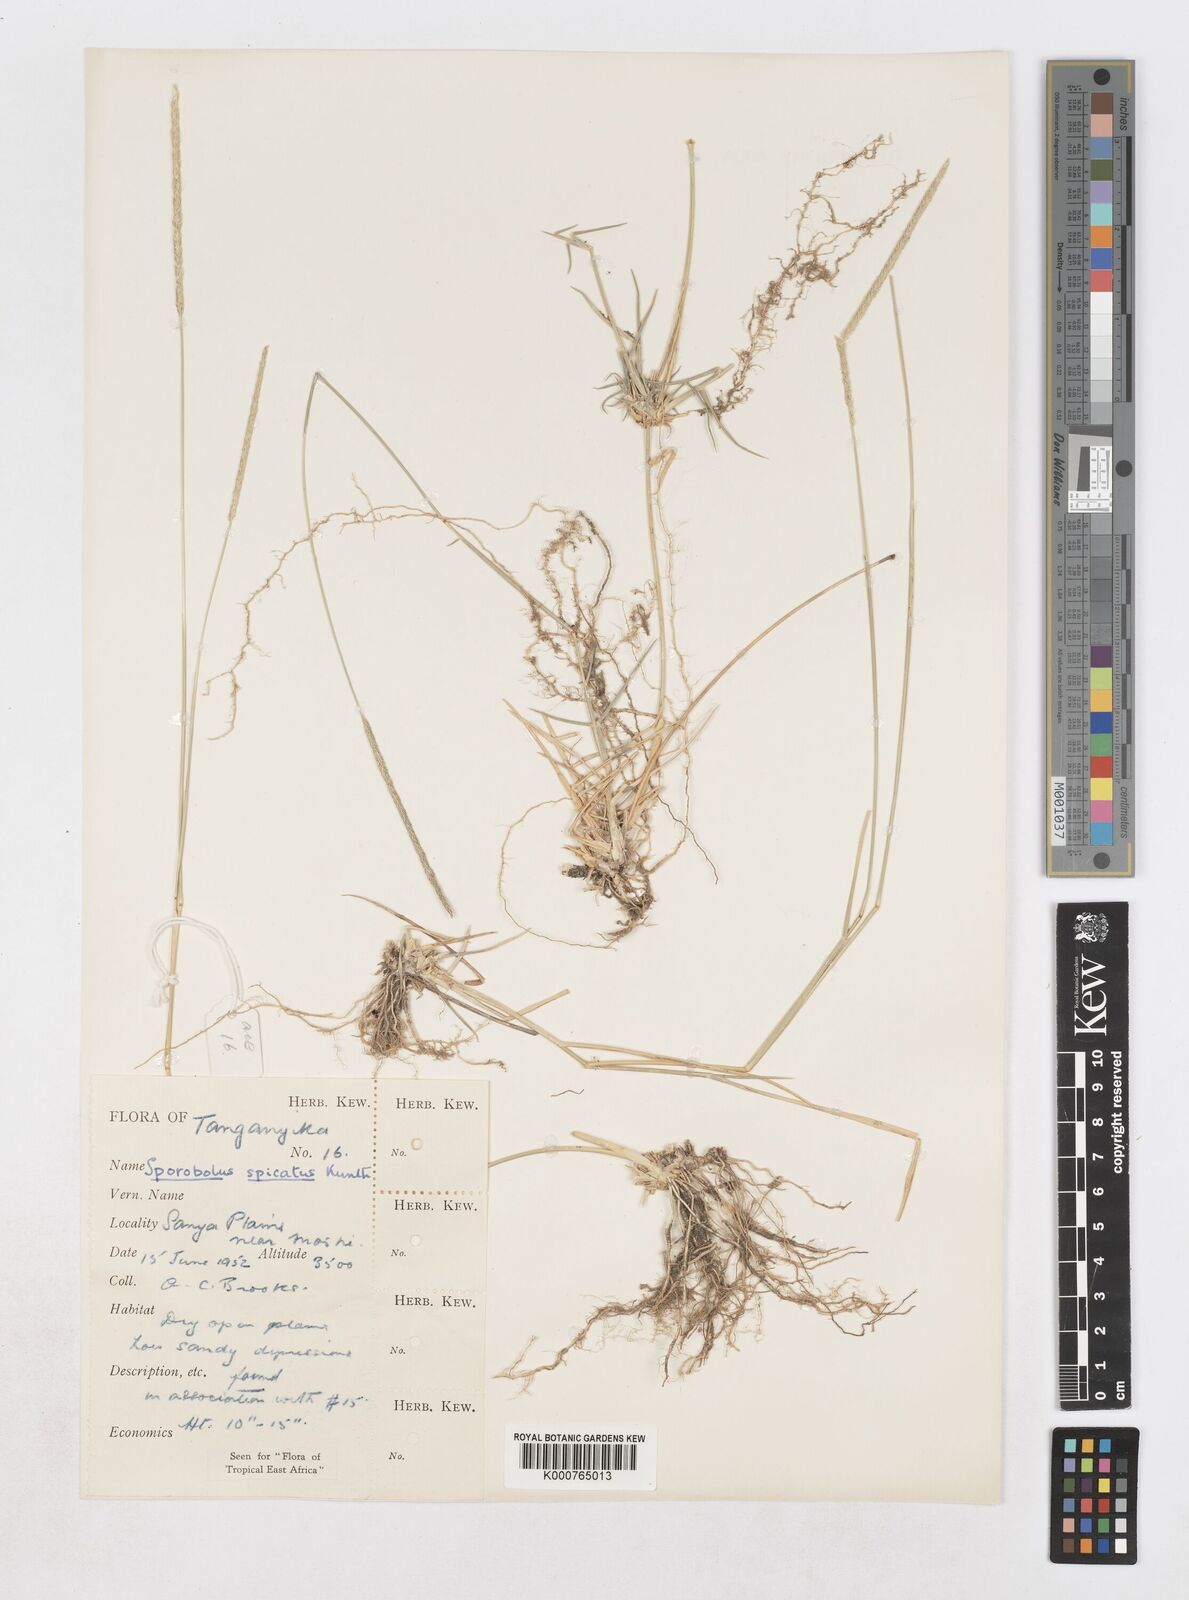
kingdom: Plantae
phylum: Tracheophyta
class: Liliopsida
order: Poales
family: Poaceae
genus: Sporobolus
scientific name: Sporobolus spicatus
